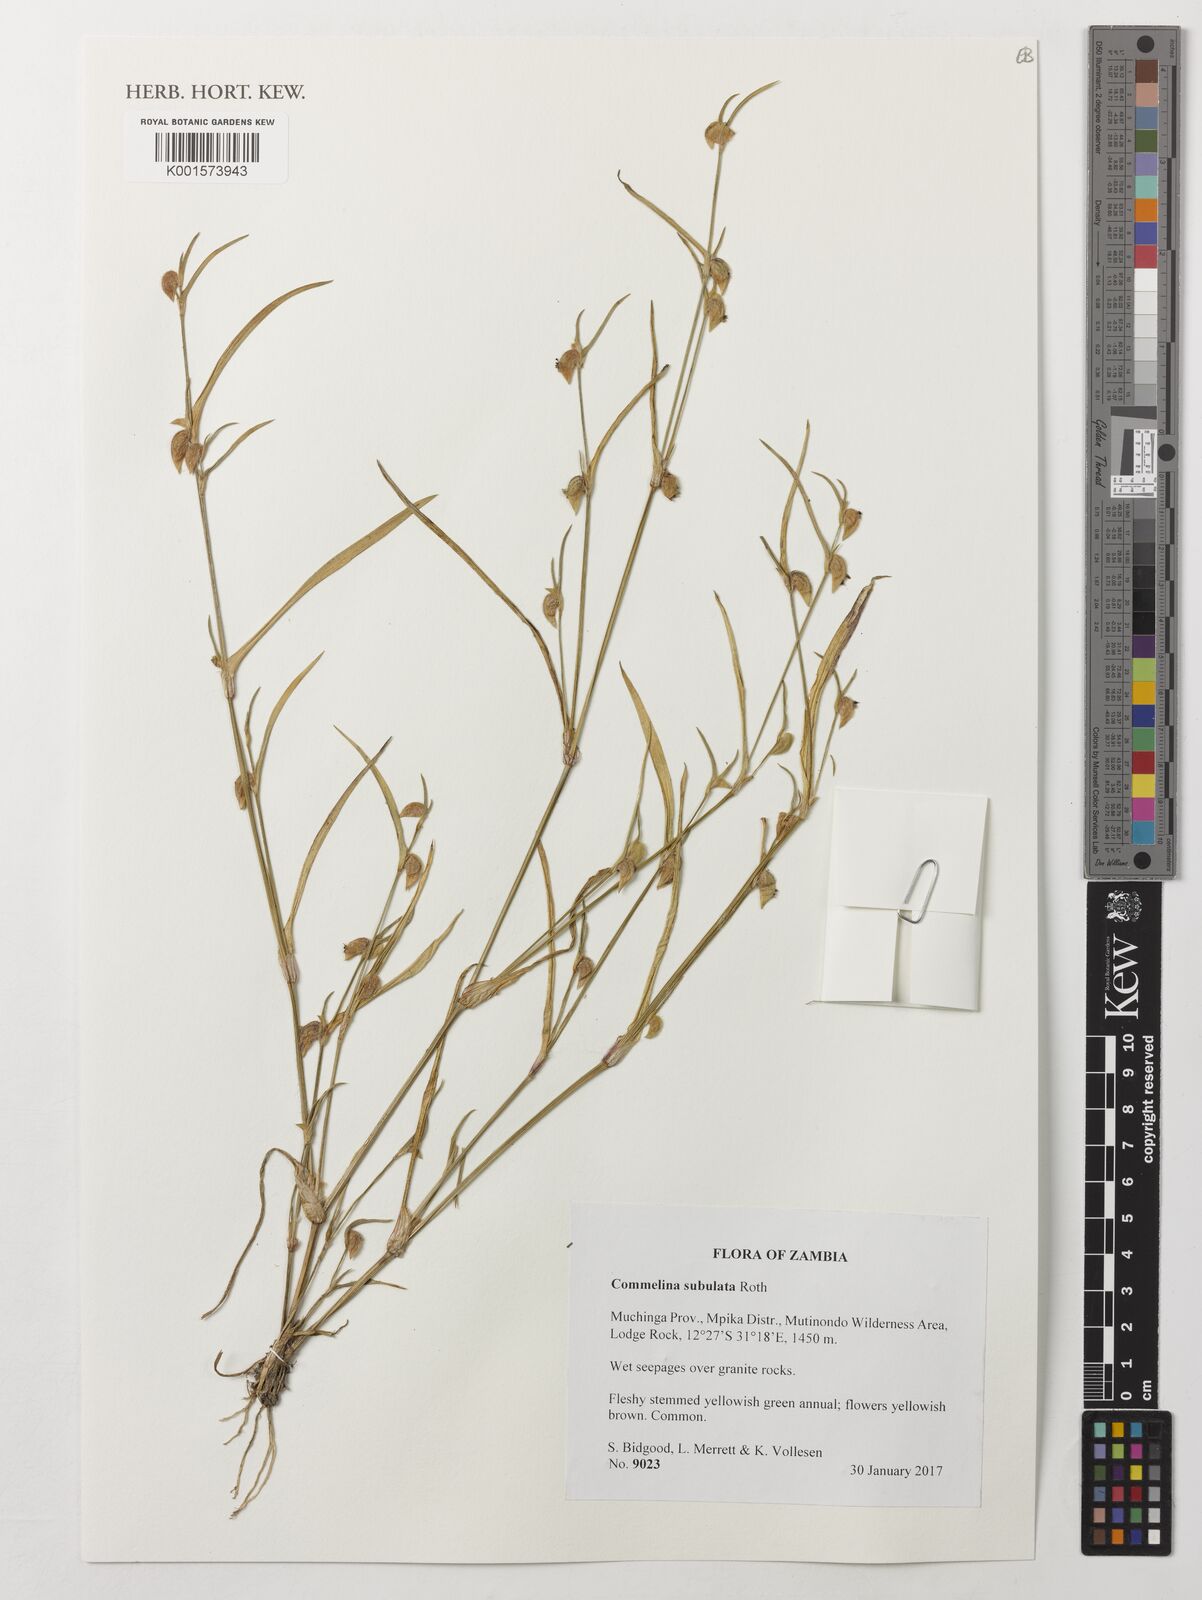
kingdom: Plantae
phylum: Tracheophyta
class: Liliopsida
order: Commelinales
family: Commelinaceae
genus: Commelina
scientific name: Commelina subulata
